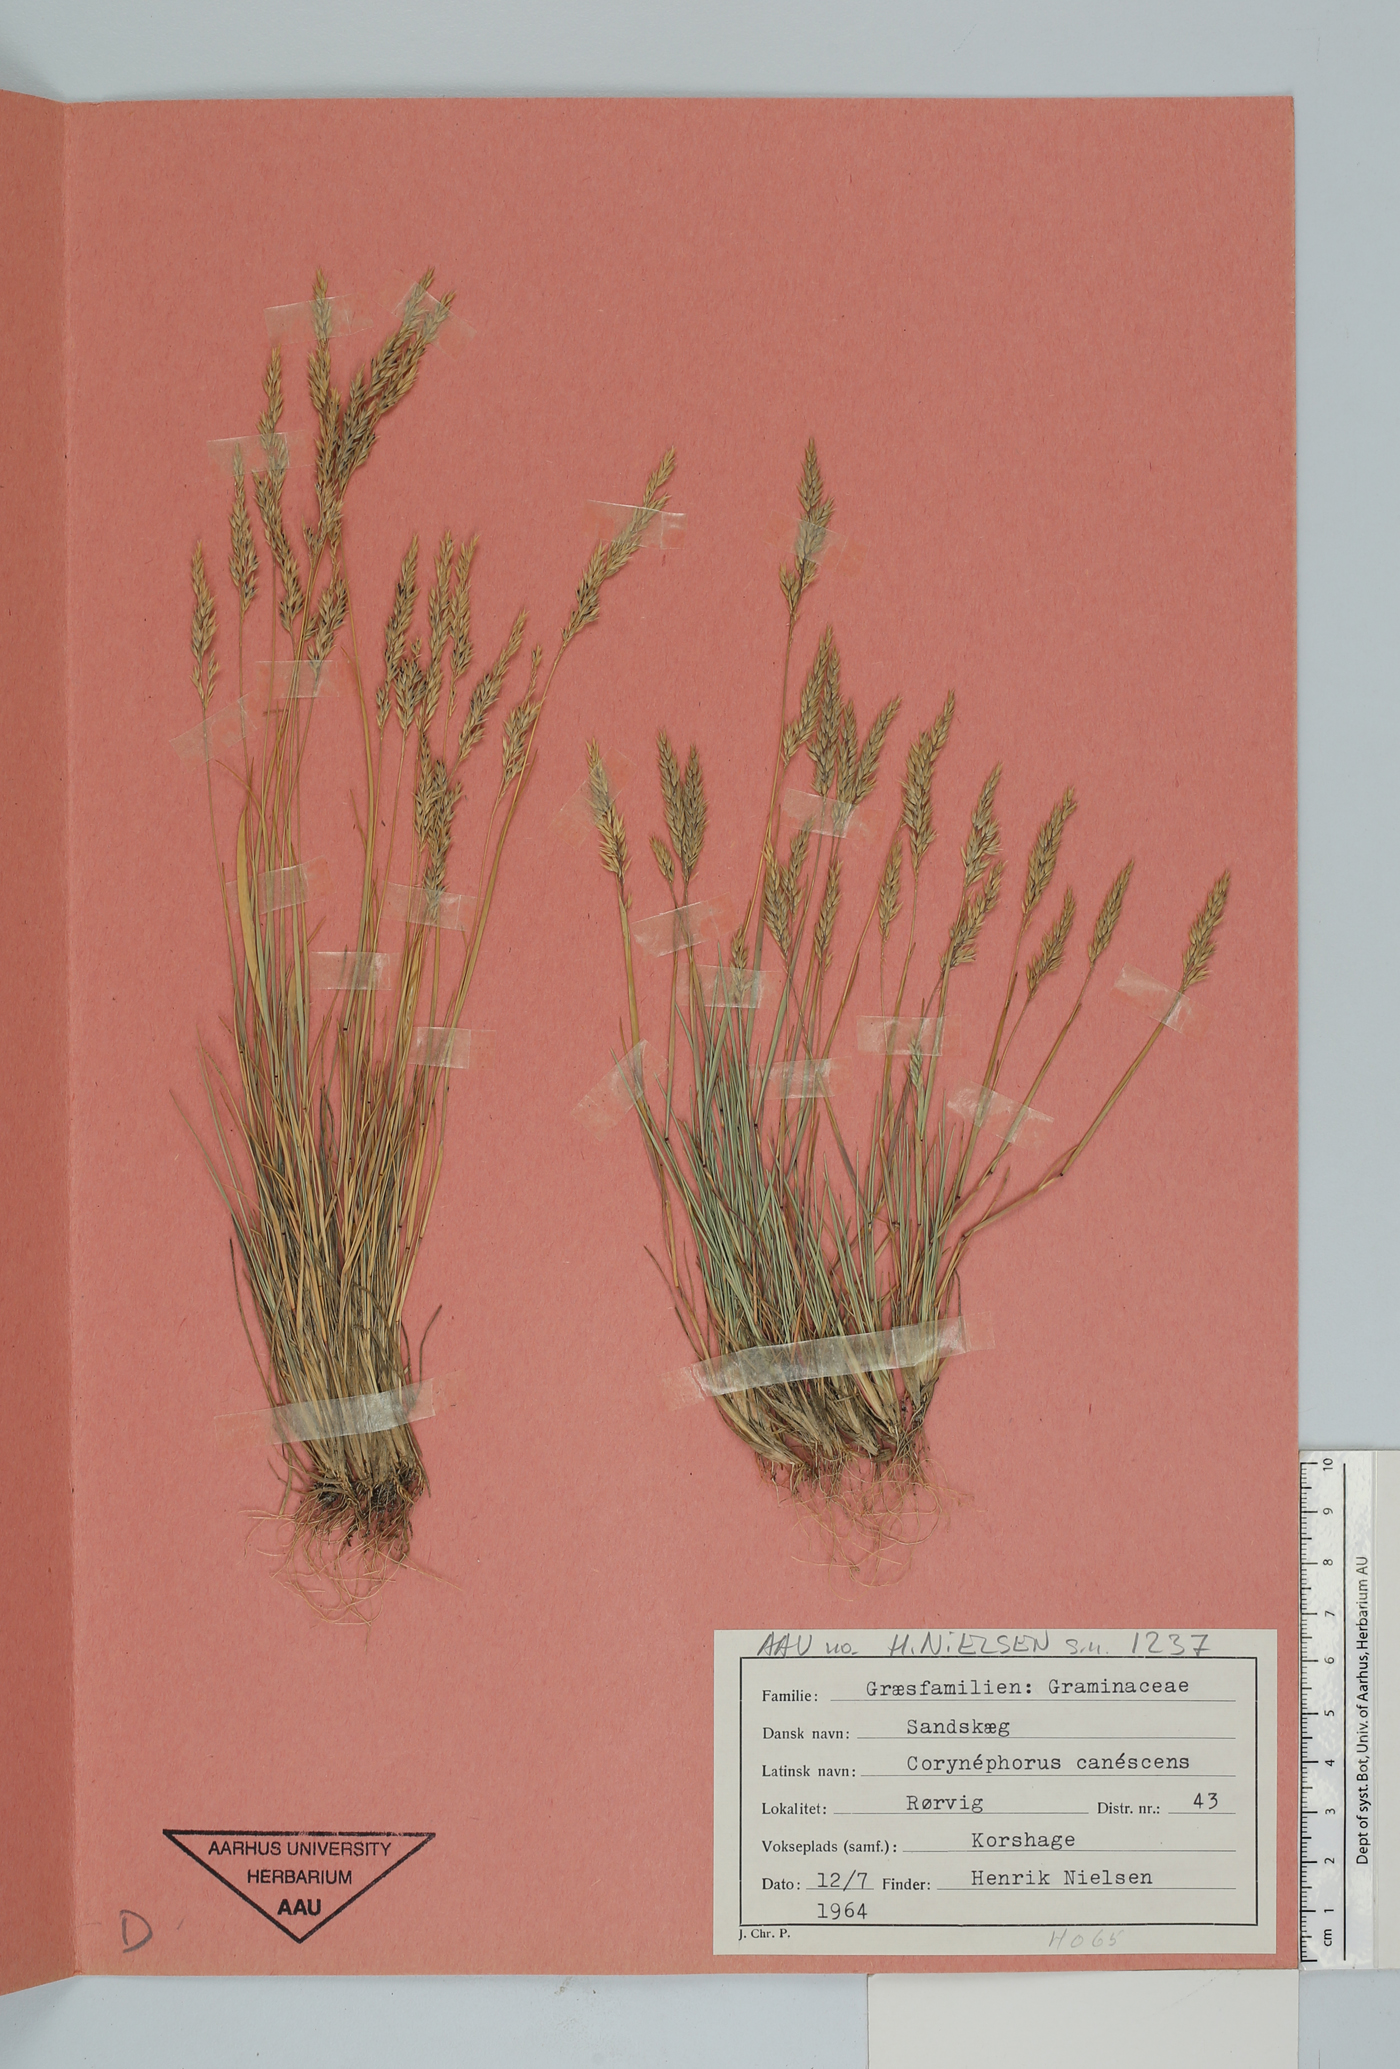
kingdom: Plantae
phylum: Tracheophyta
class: Liliopsida
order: Poales
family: Poaceae
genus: Corynephorus
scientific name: Corynephorus canescens
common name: Grey hair-grass
